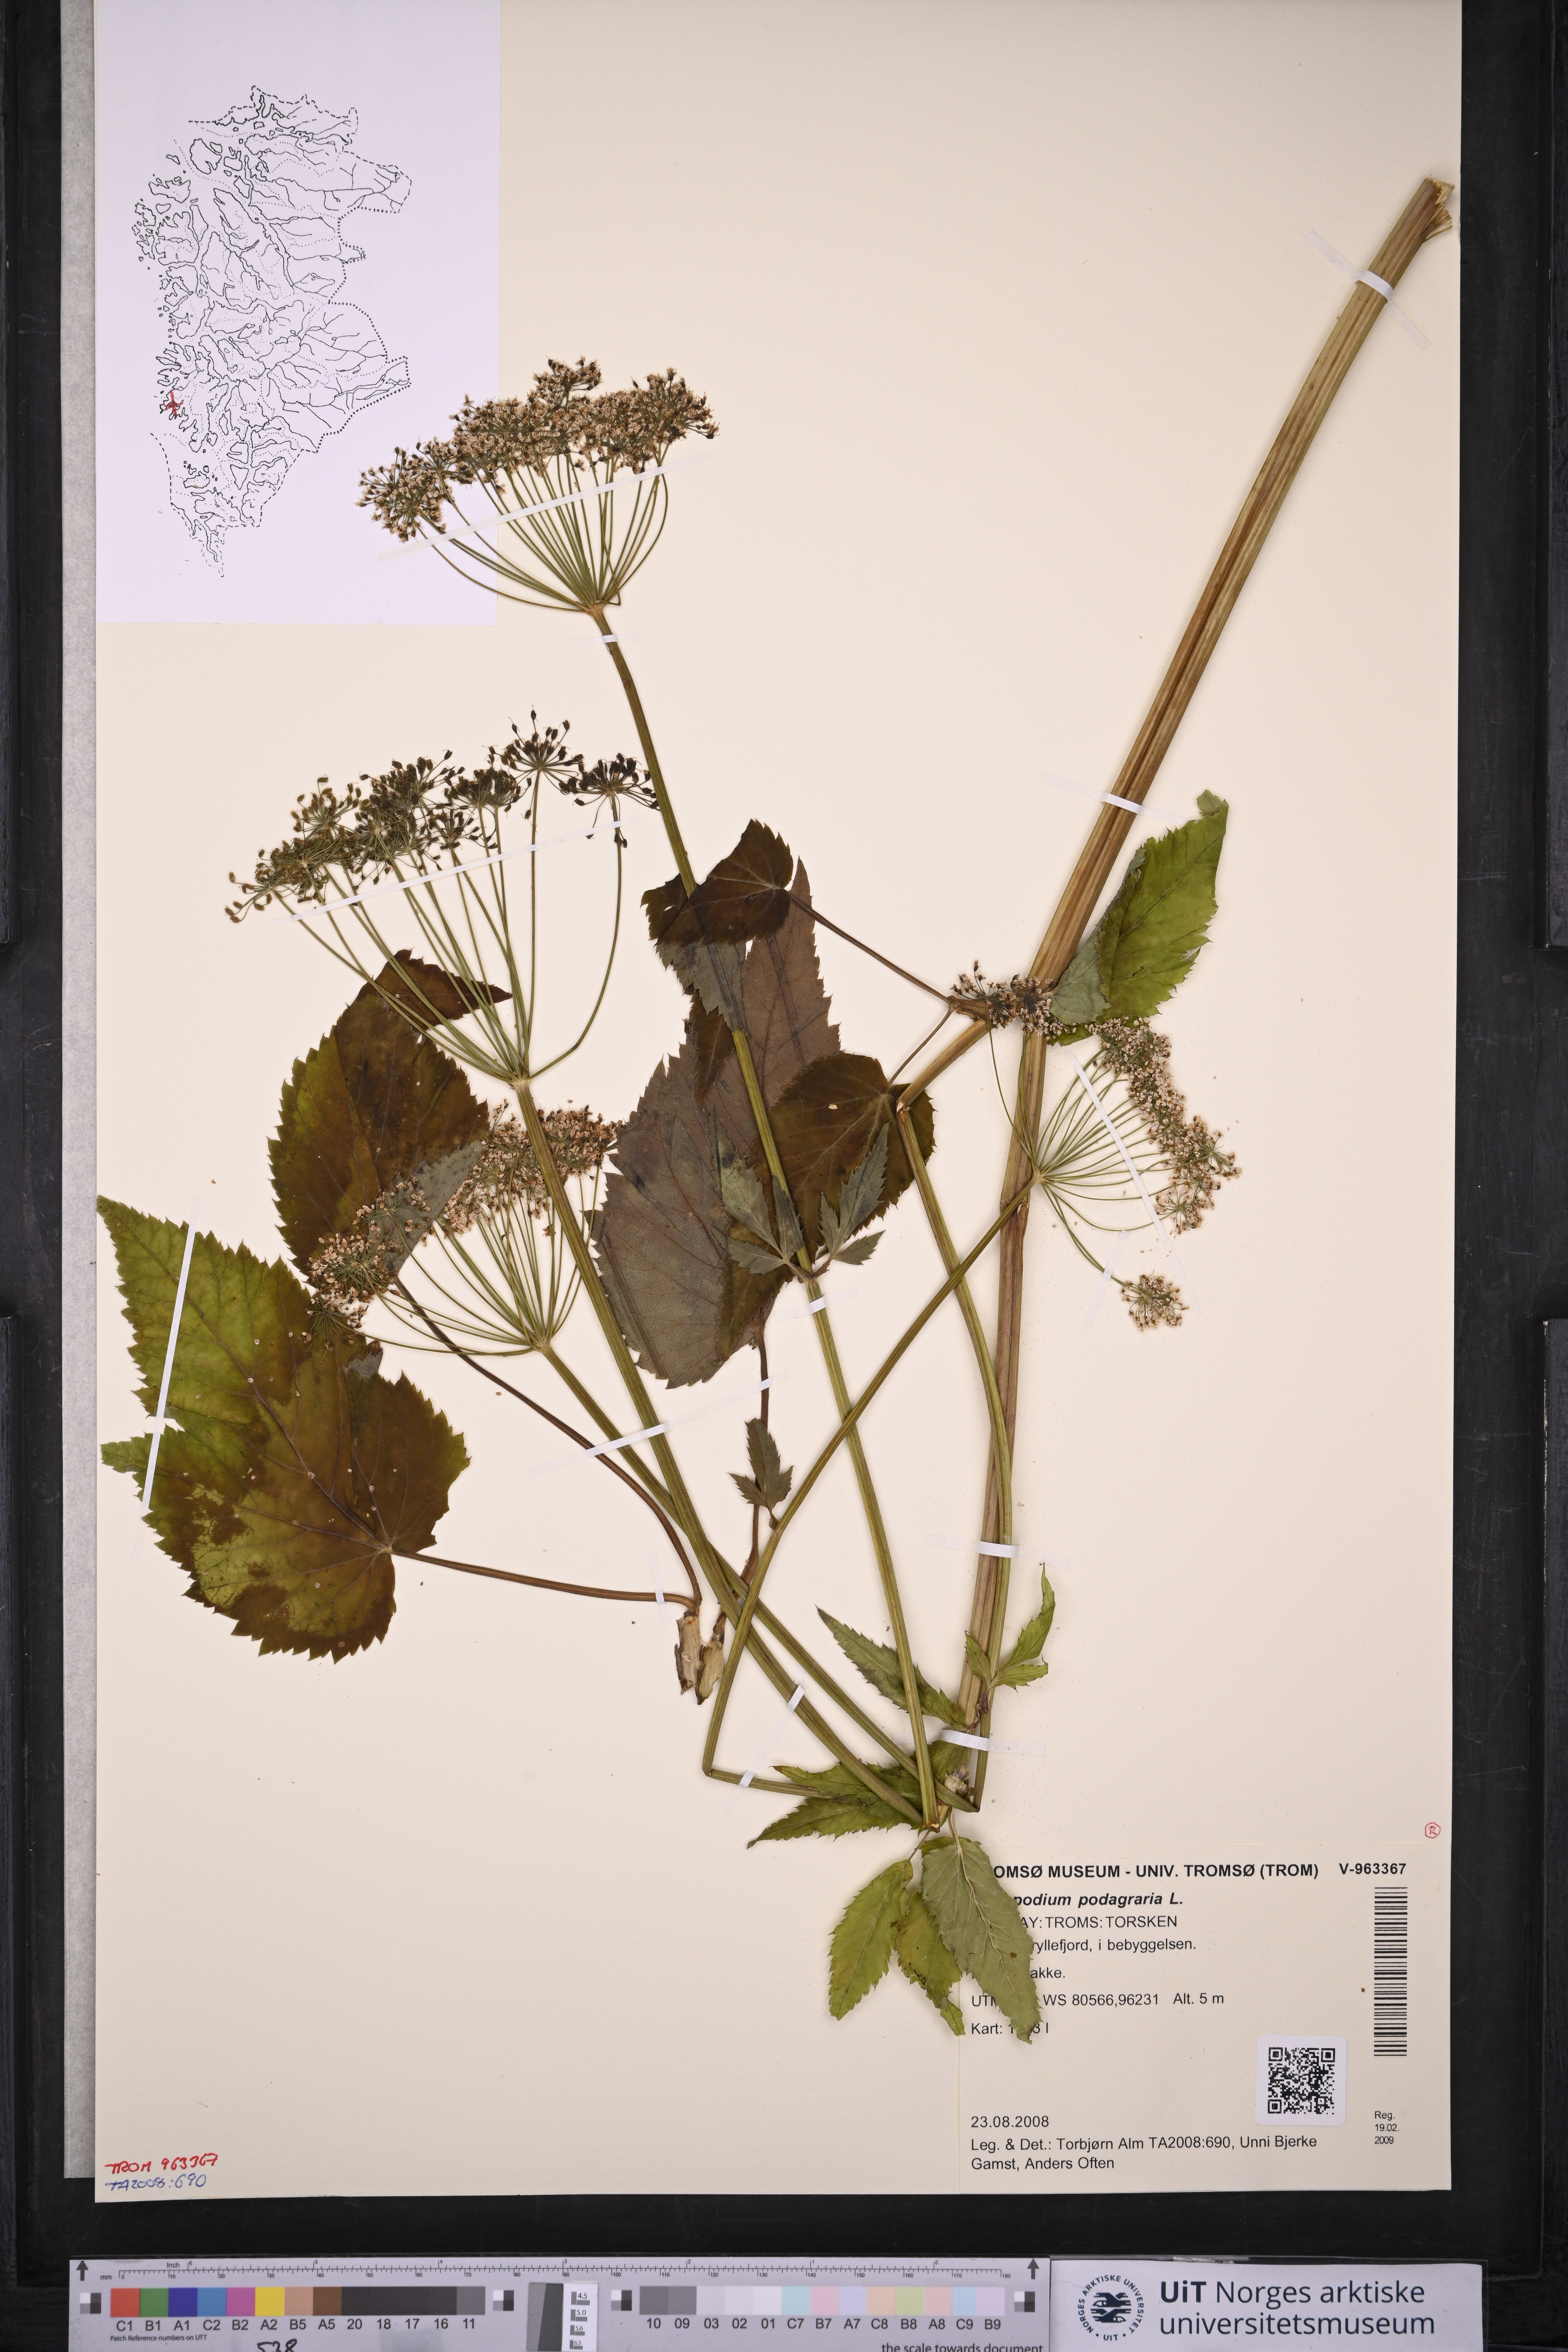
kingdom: Plantae
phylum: Tracheophyta
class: Magnoliopsida
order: Apiales
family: Apiaceae
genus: Aegopodium
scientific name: Aegopodium podagraria
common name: Ground-elder
